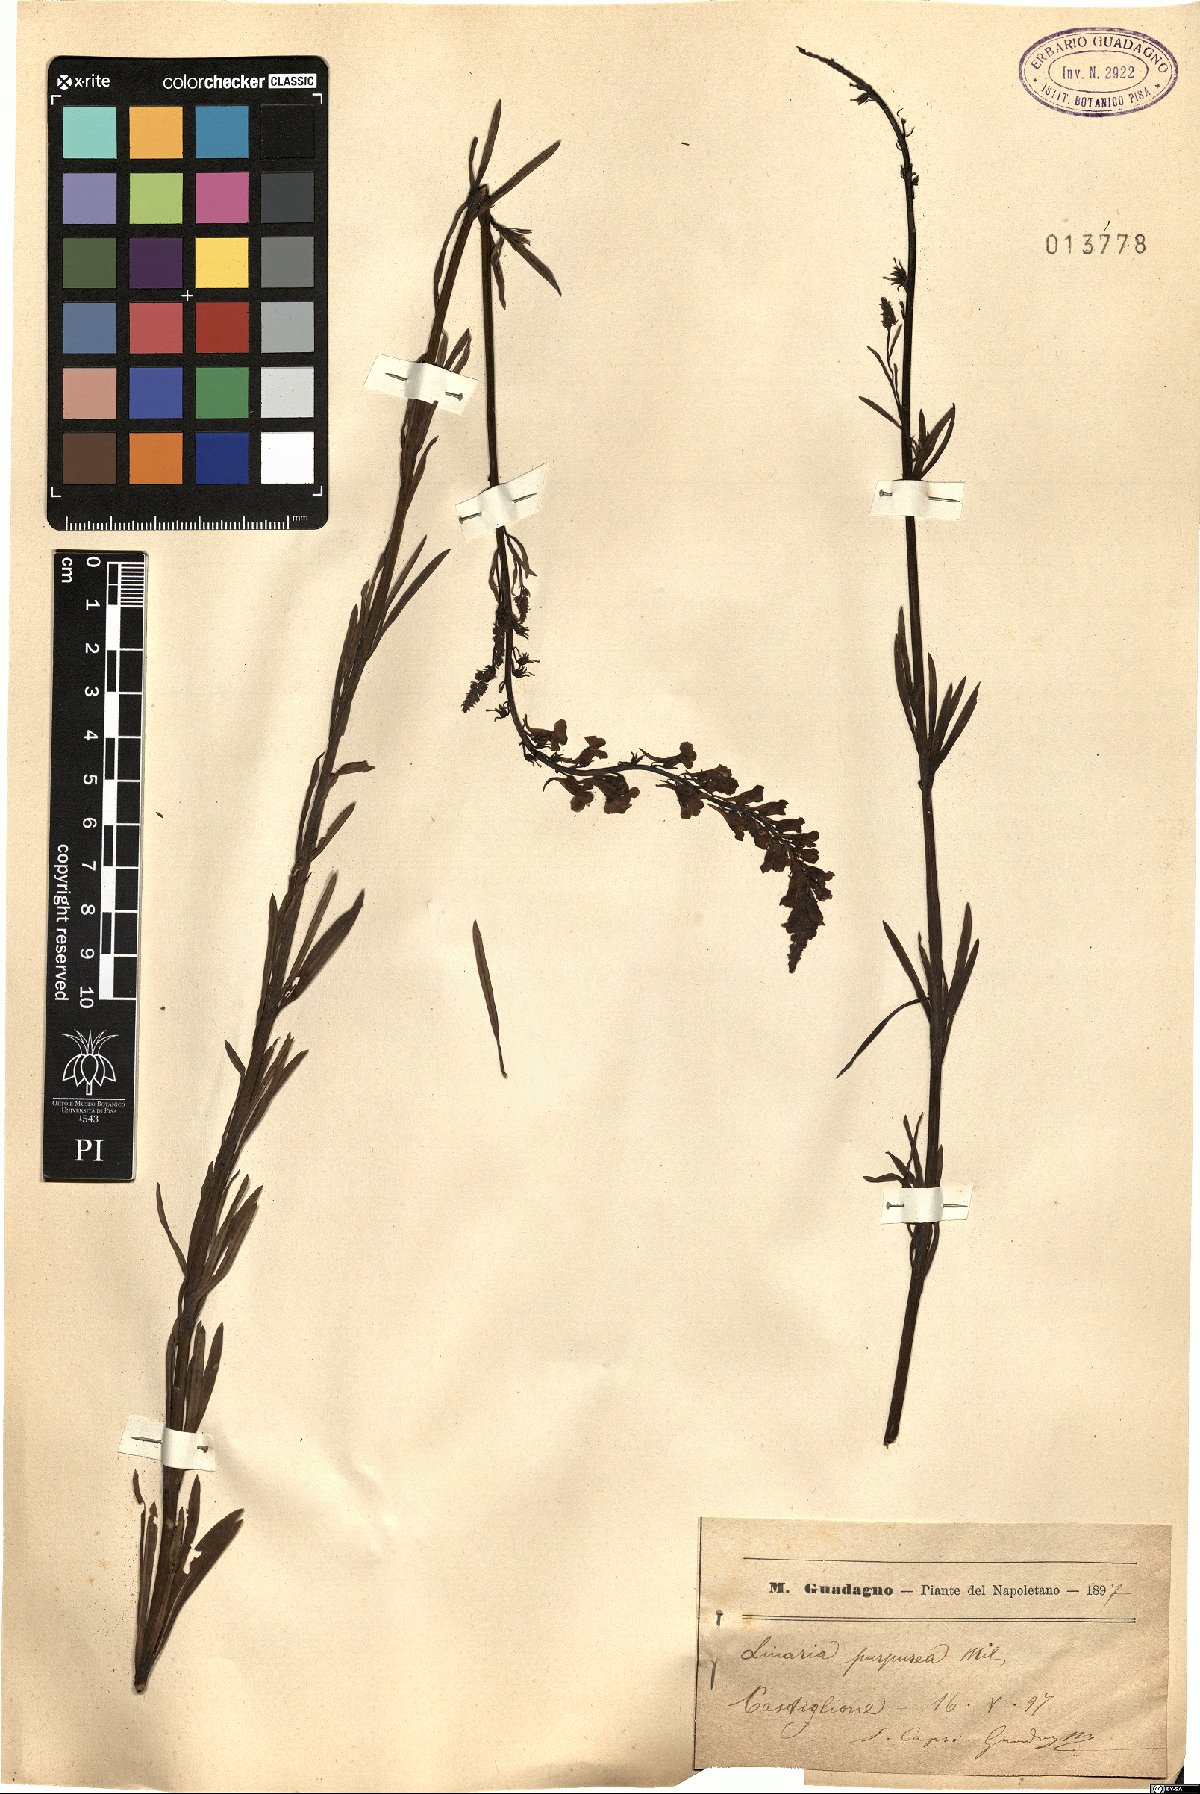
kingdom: Plantae
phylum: Tracheophyta
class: Magnoliopsida
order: Lamiales
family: Plantaginaceae
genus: Linaria
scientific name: Linaria purpurea
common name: Purple toadflax
